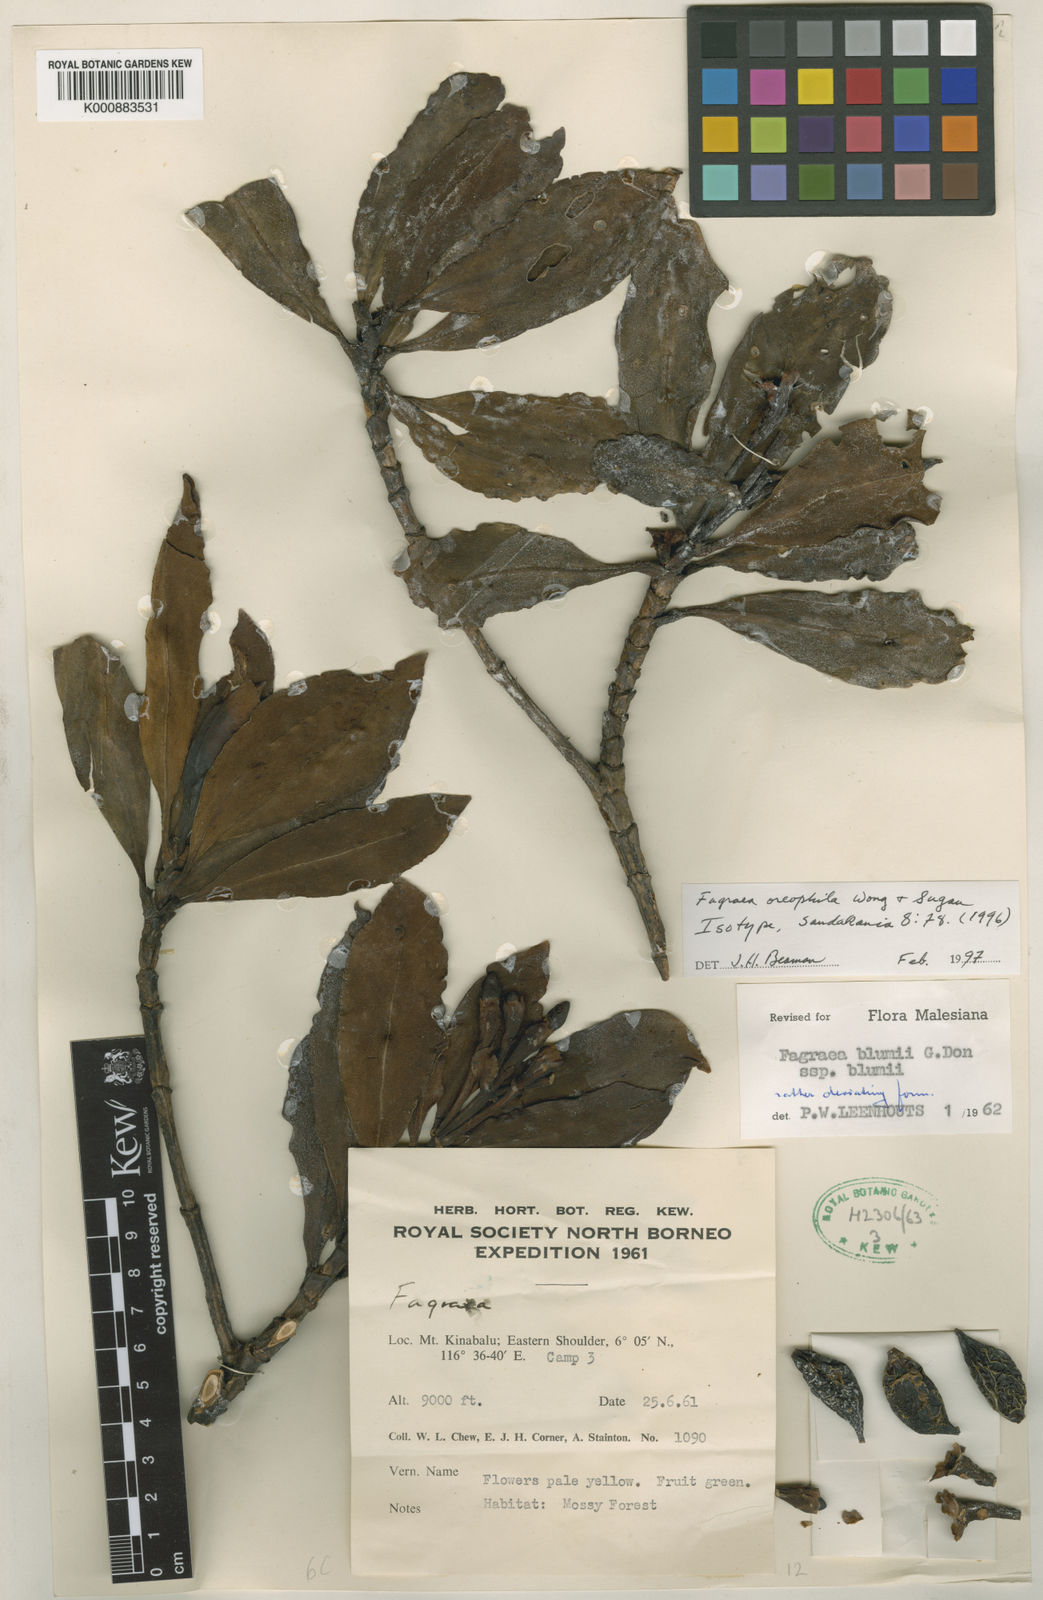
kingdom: Plantae
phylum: Tracheophyta
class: Magnoliopsida
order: Gentianales
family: Gentianaceae
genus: Fagraea
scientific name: Fagraea oreophila
